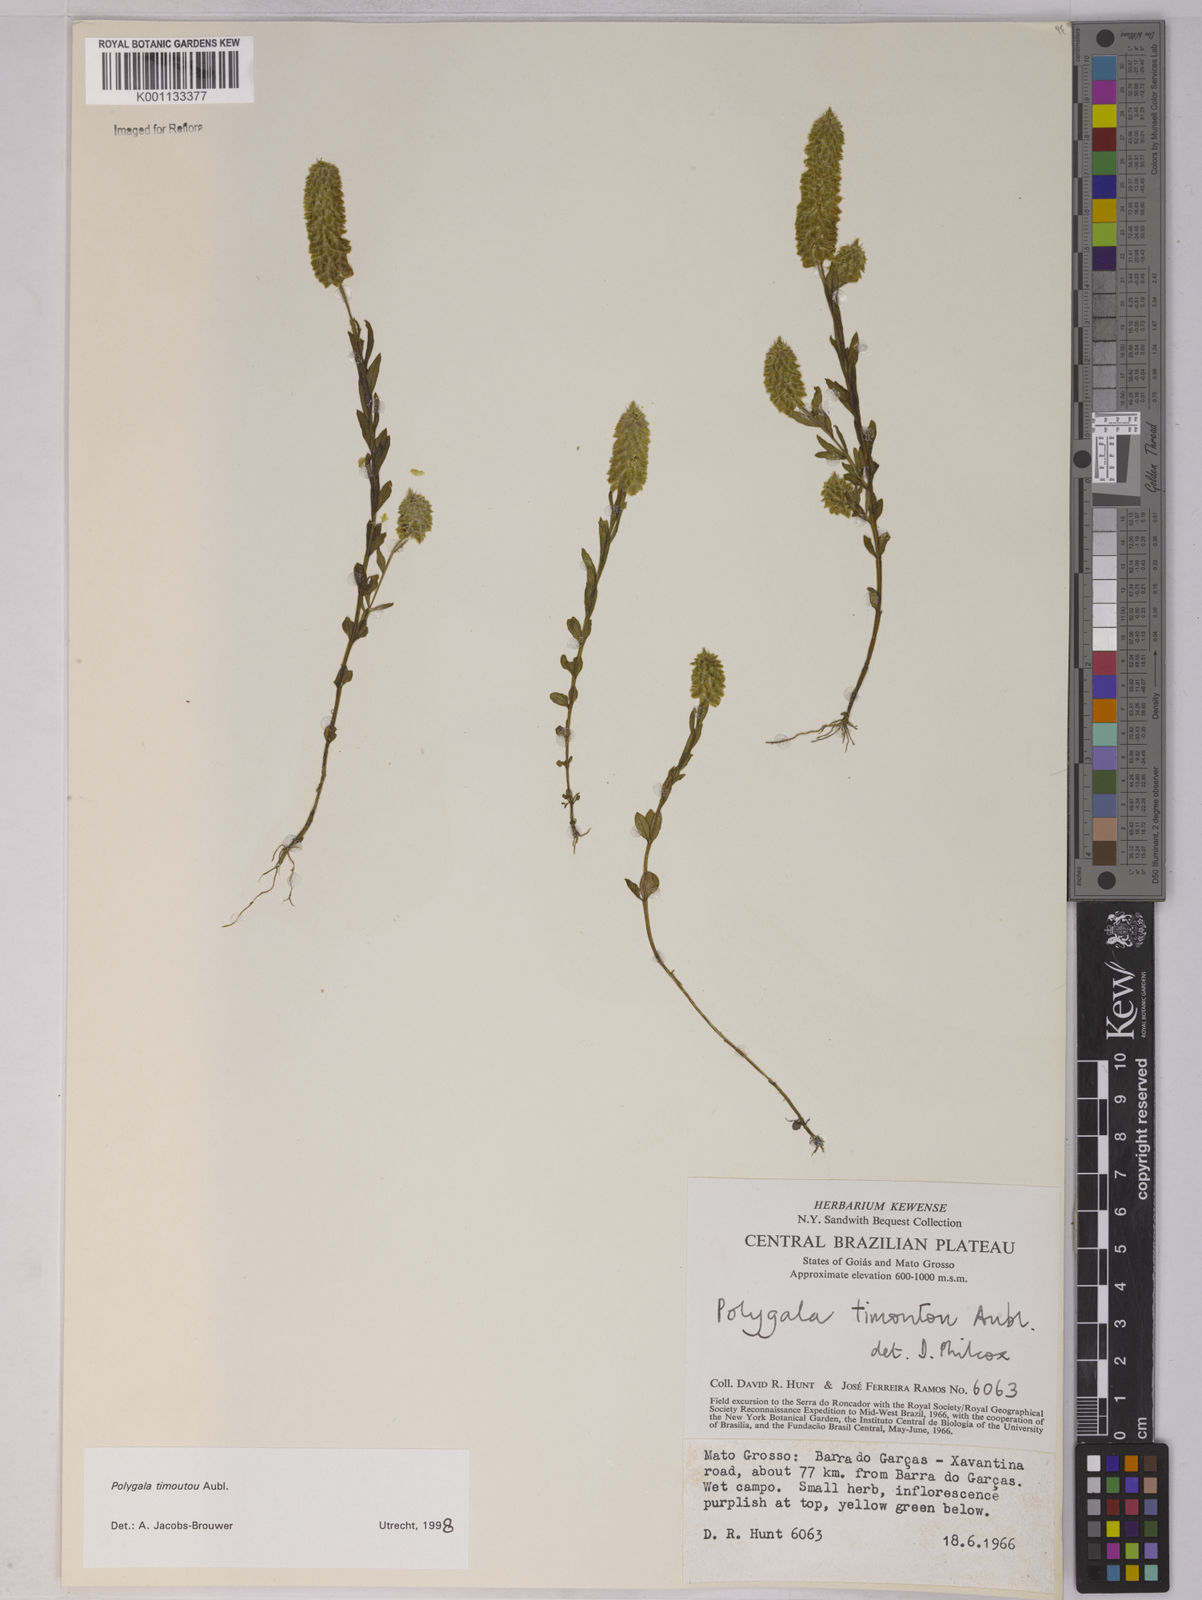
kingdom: Plantae
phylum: Tracheophyta
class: Magnoliopsida
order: Fabales
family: Polygalaceae
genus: Polygala
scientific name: Polygala timoutoides
